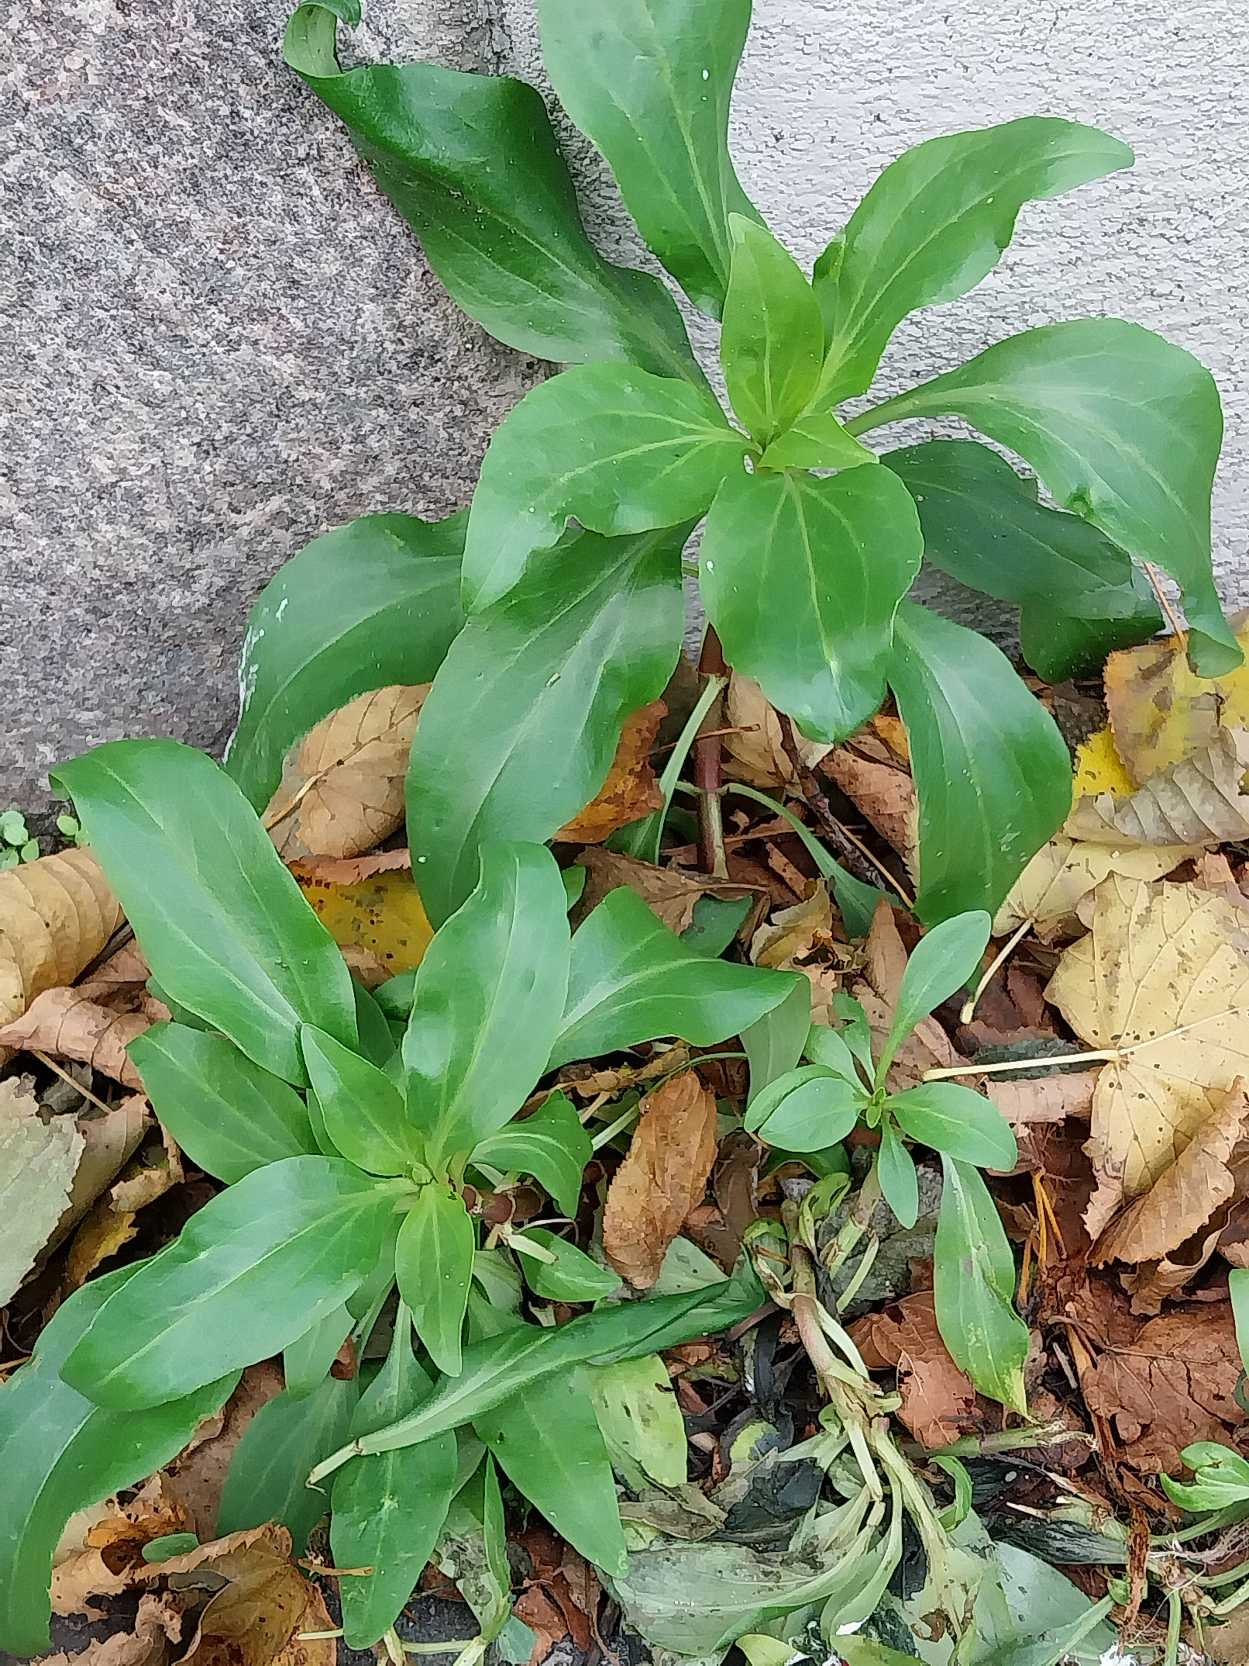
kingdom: Plantae
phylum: Tracheophyta
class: Magnoliopsida
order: Dipsacales
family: Caprifoliaceae
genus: Centranthus
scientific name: Centranthus ruber
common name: Sporebaldrian
